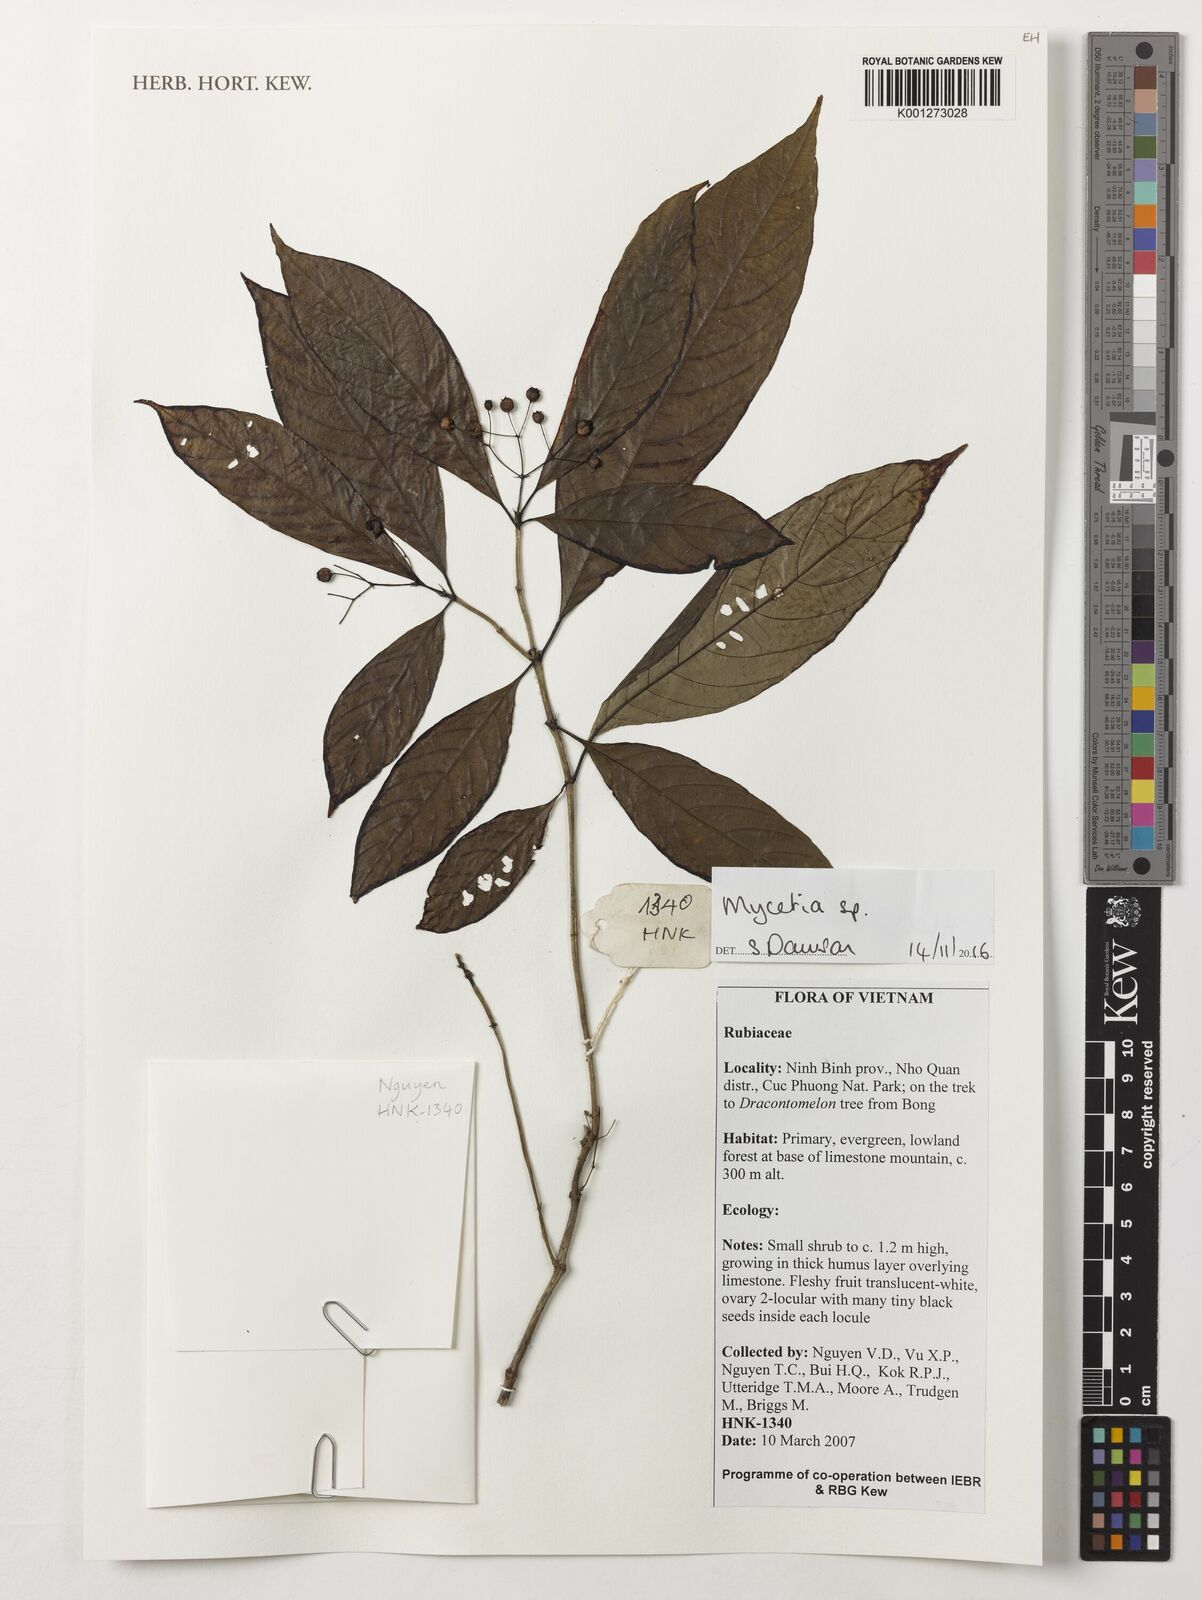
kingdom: Plantae
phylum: Tracheophyta
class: Magnoliopsida
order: Gentianales
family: Rubiaceae
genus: Mycetia
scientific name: Mycetia
